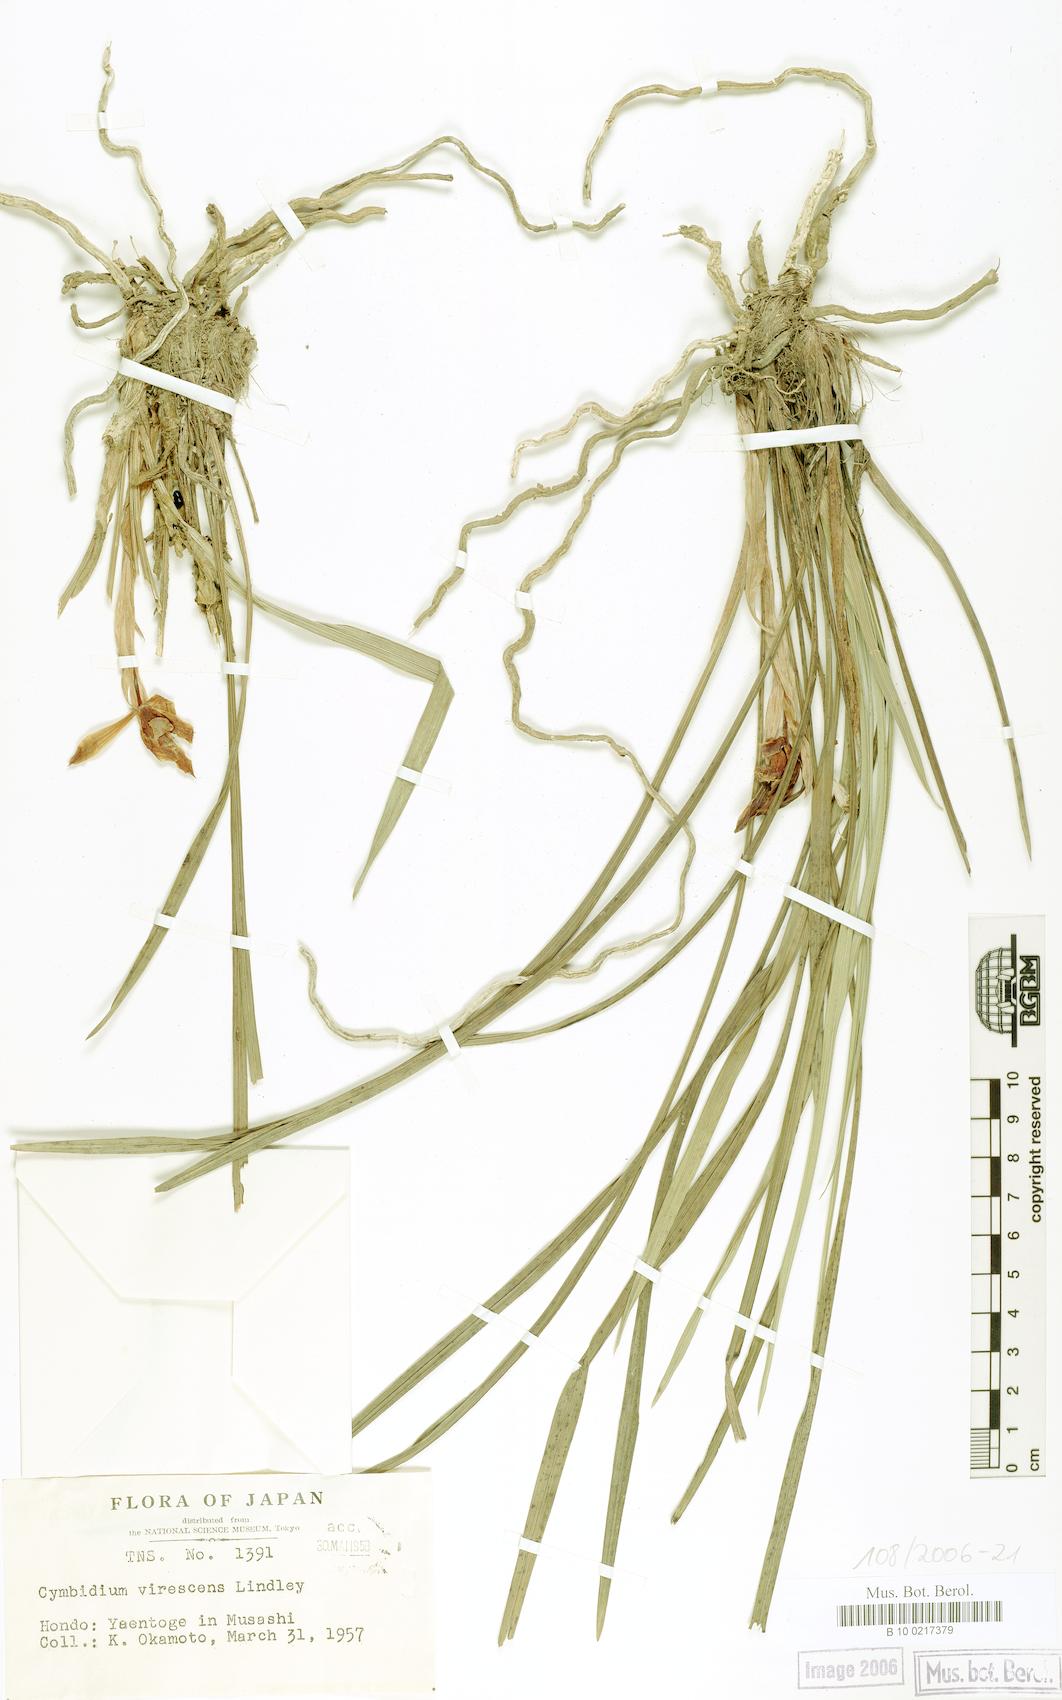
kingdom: Plantae
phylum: Tracheophyta
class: Liliopsida
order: Asparagales
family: Orchidaceae
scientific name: Orchidaceae
